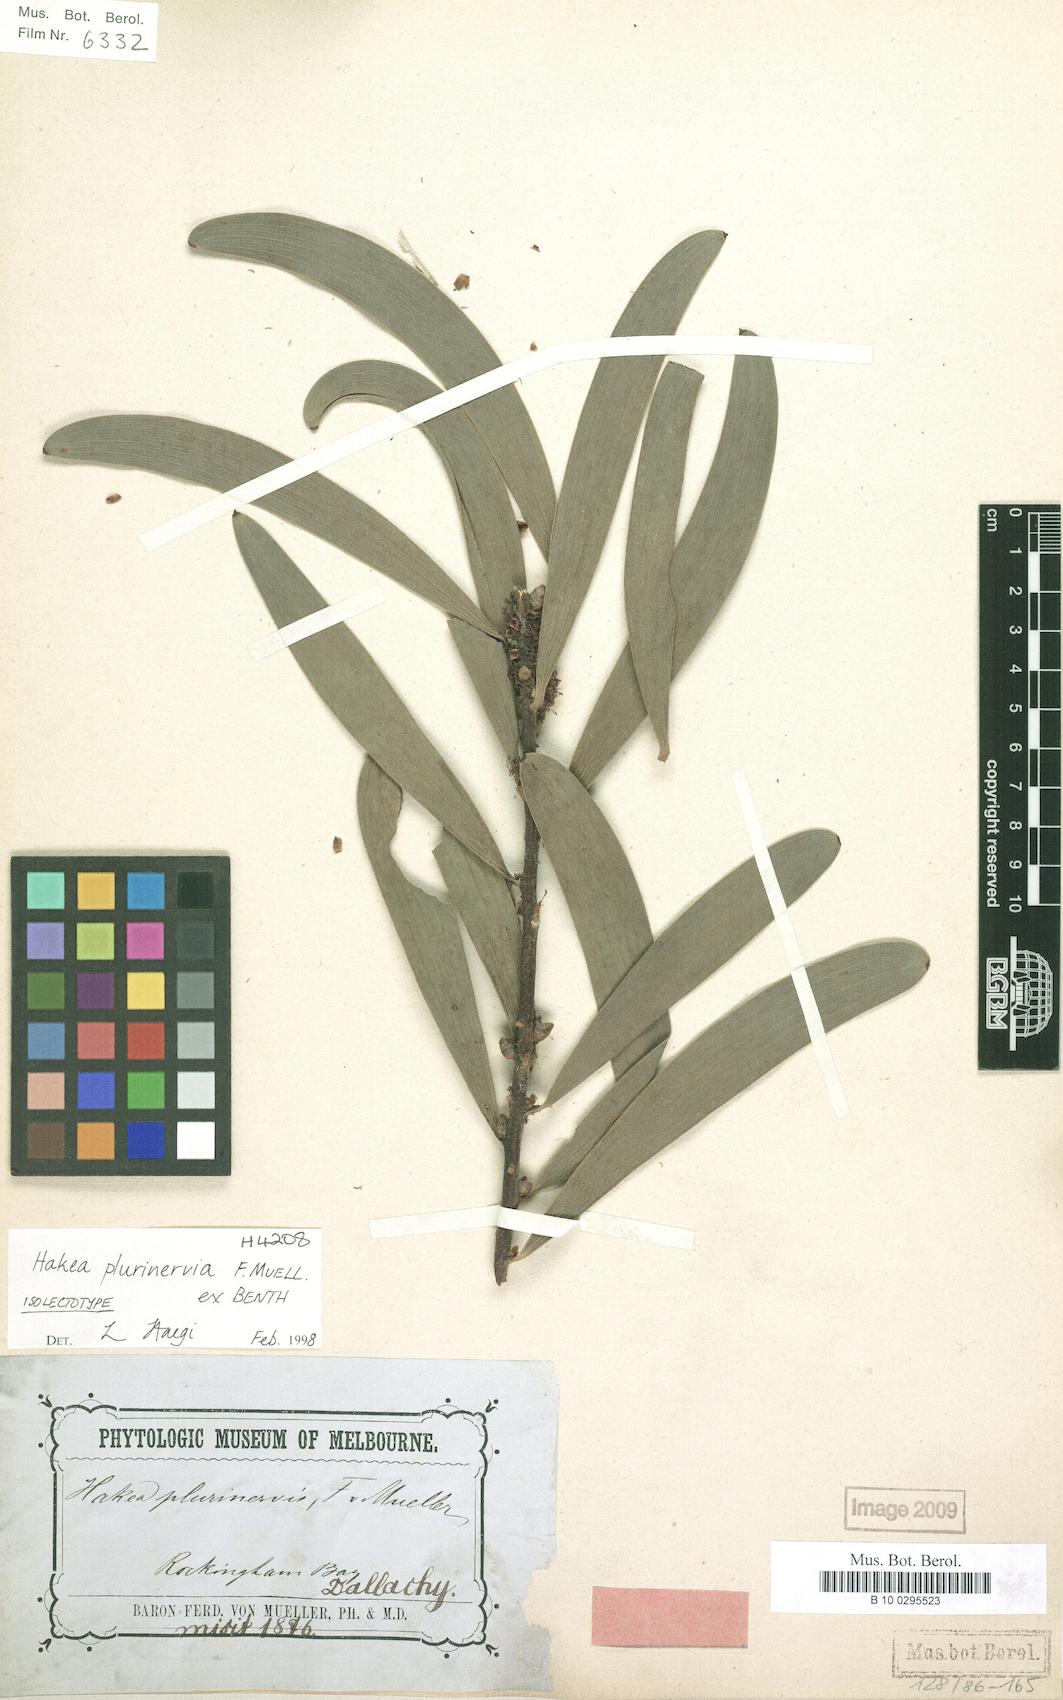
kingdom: Plantae
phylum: Tracheophyta
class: Magnoliopsida
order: Proteales
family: Proteaceae
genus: Hakea
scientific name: Hakea benthamii
